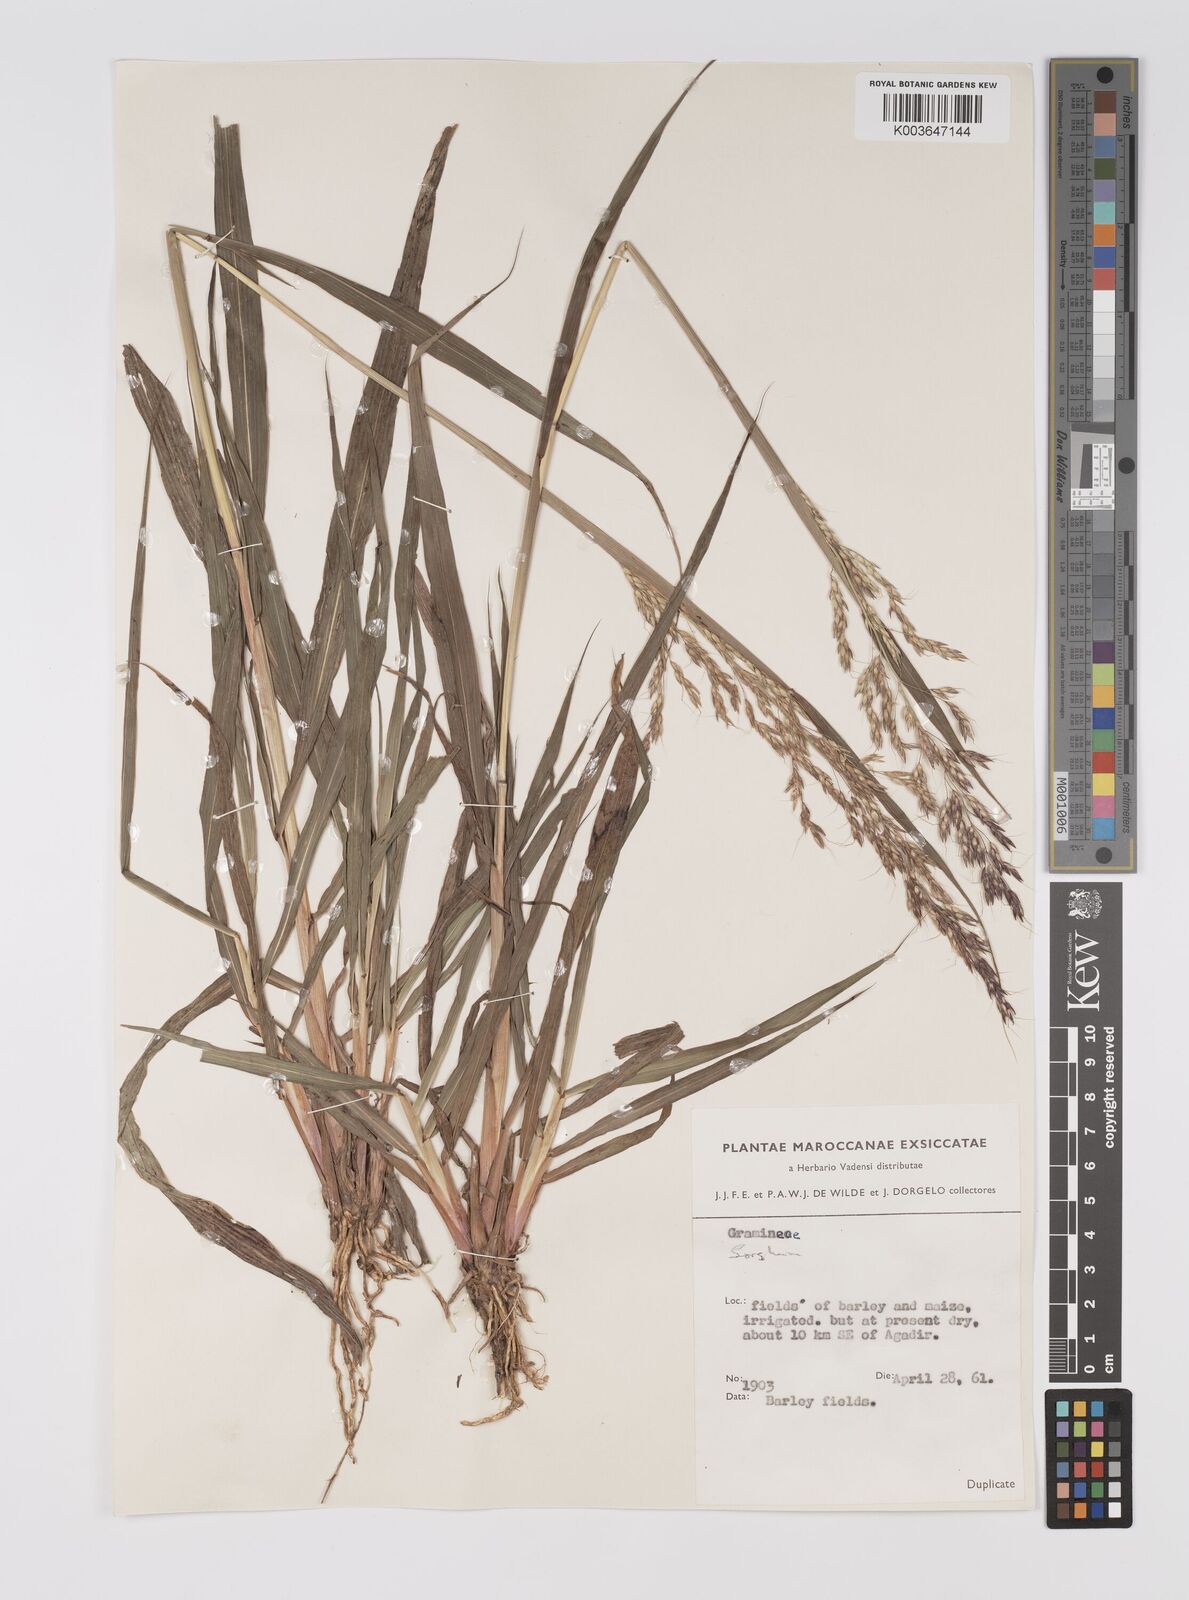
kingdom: Plantae
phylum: Tracheophyta
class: Liliopsida
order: Poales
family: Poaceae
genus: Sorghum
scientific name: Sorghum halepense
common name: Johnson-grass
